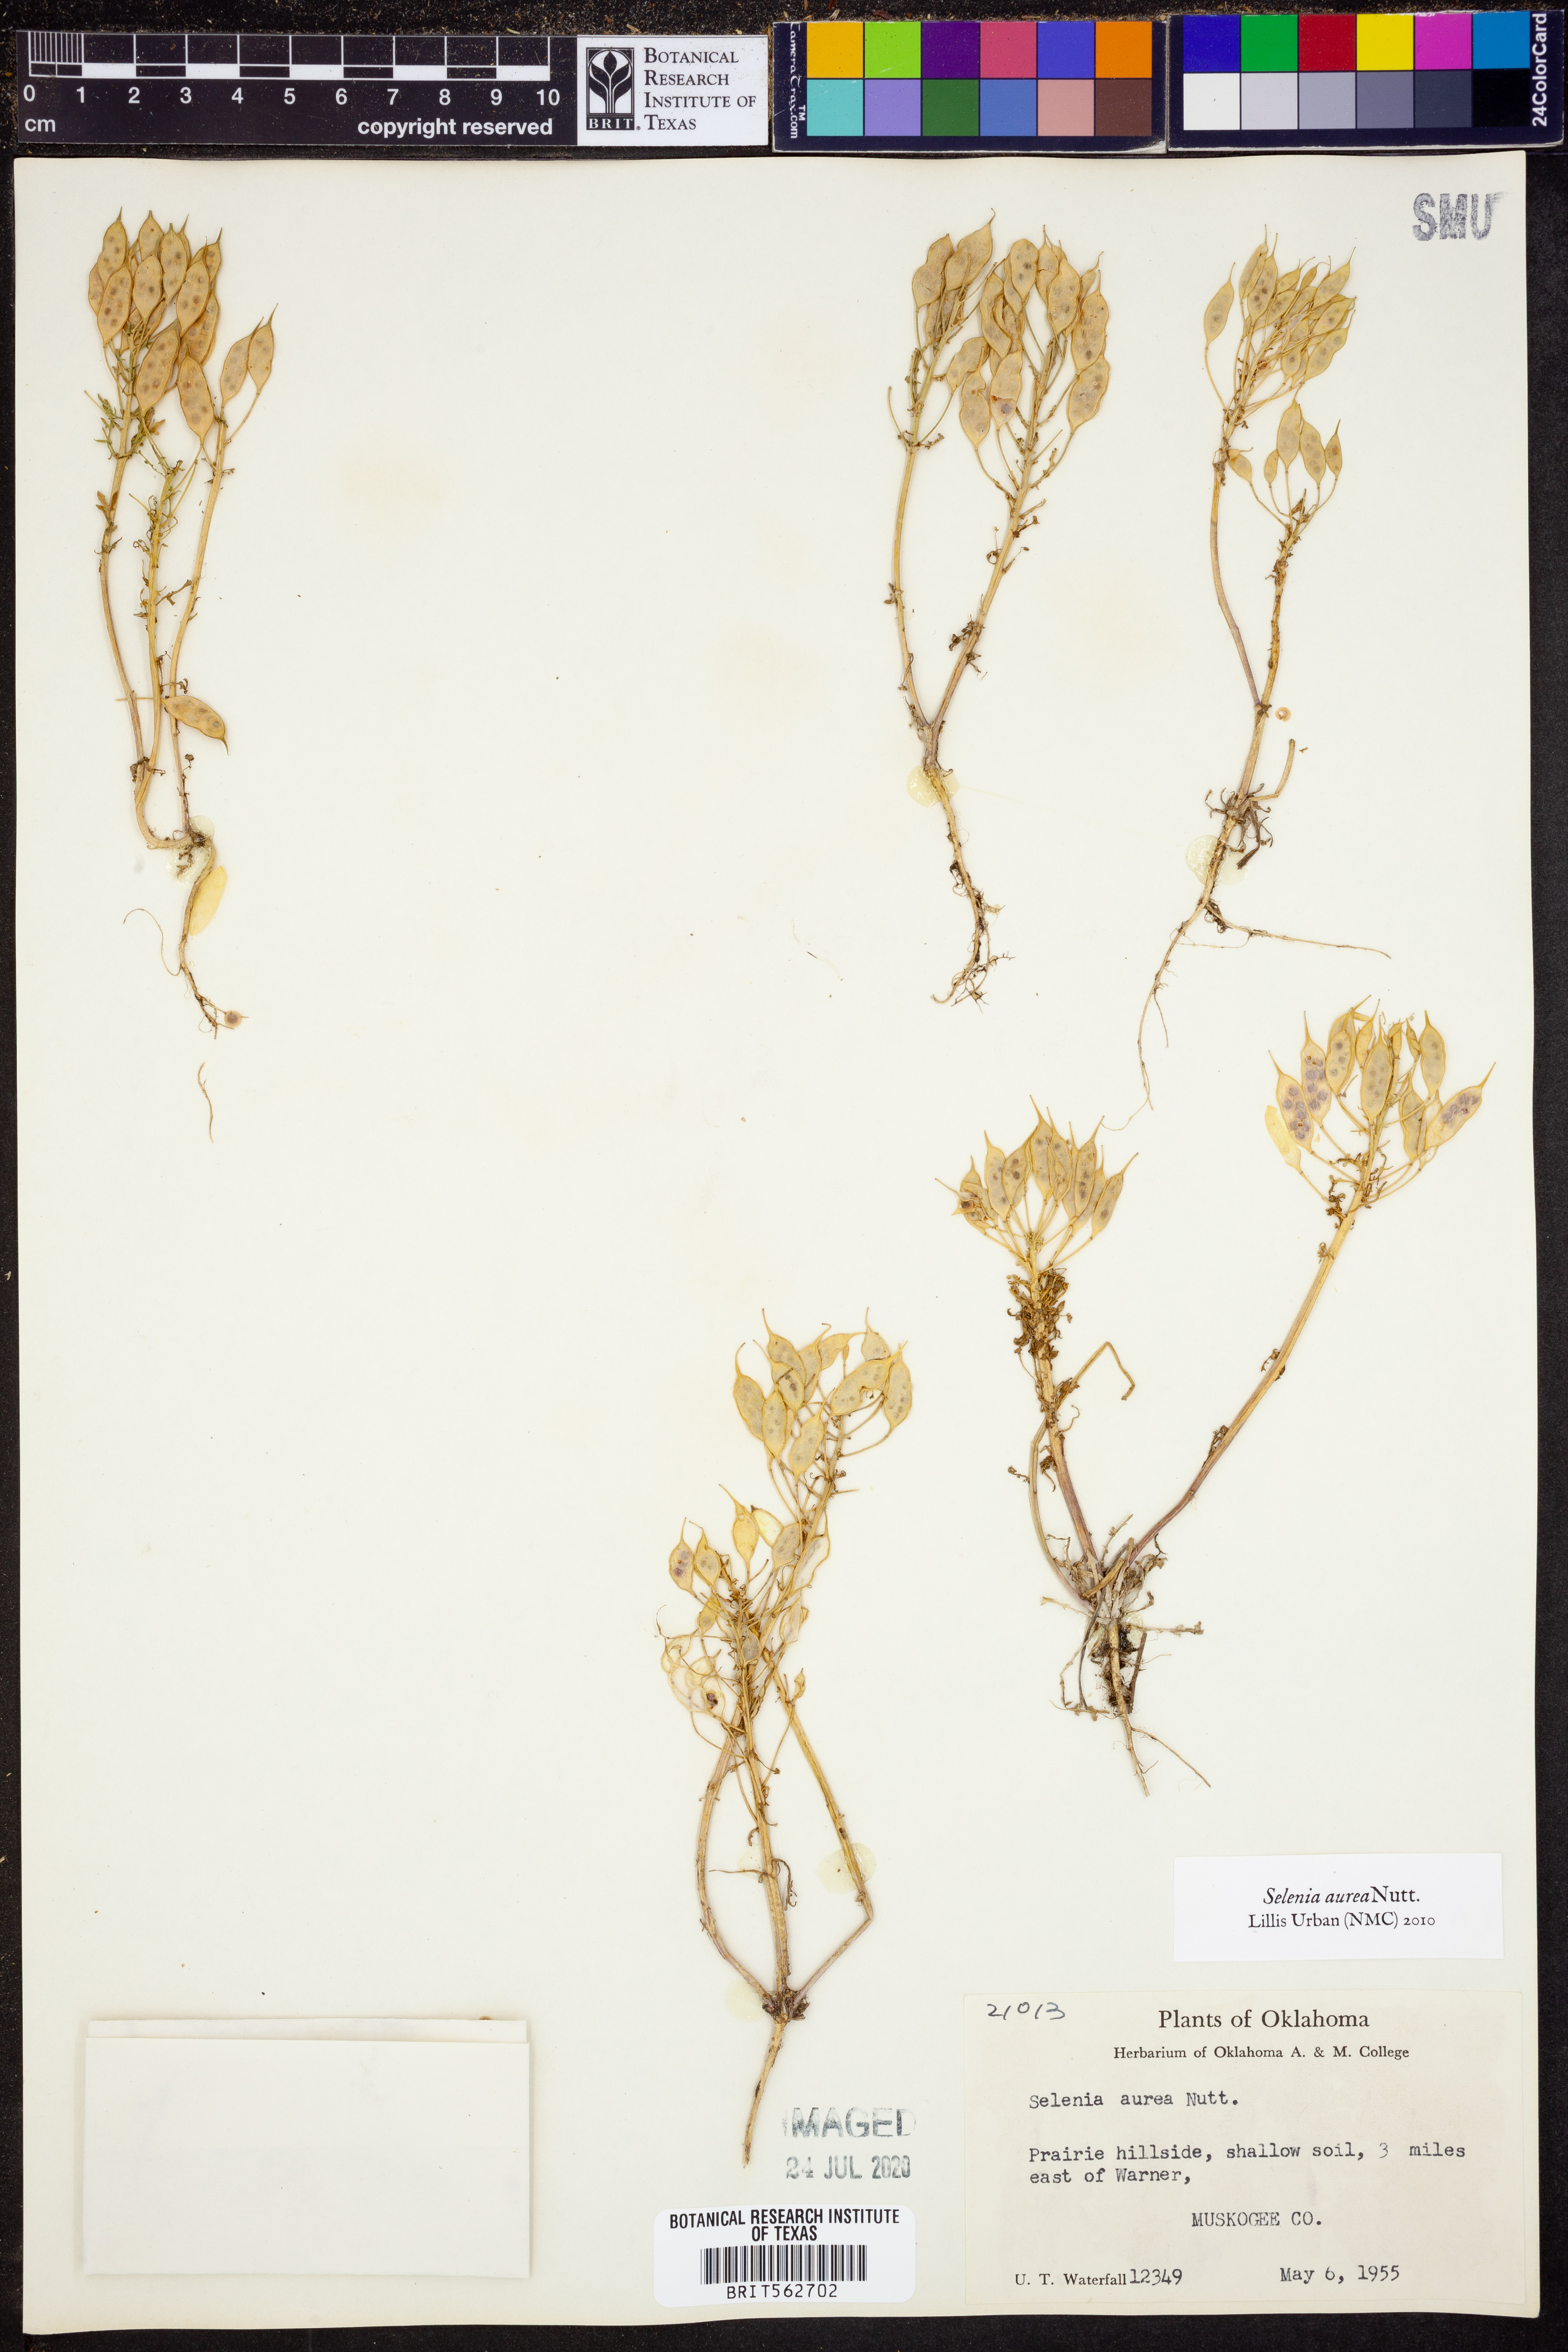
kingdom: Plantae
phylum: Tracheophyta
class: Magnoliopsida
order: Brassicales
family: Brassicaceae
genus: Selenia
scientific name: Selenia aurea
